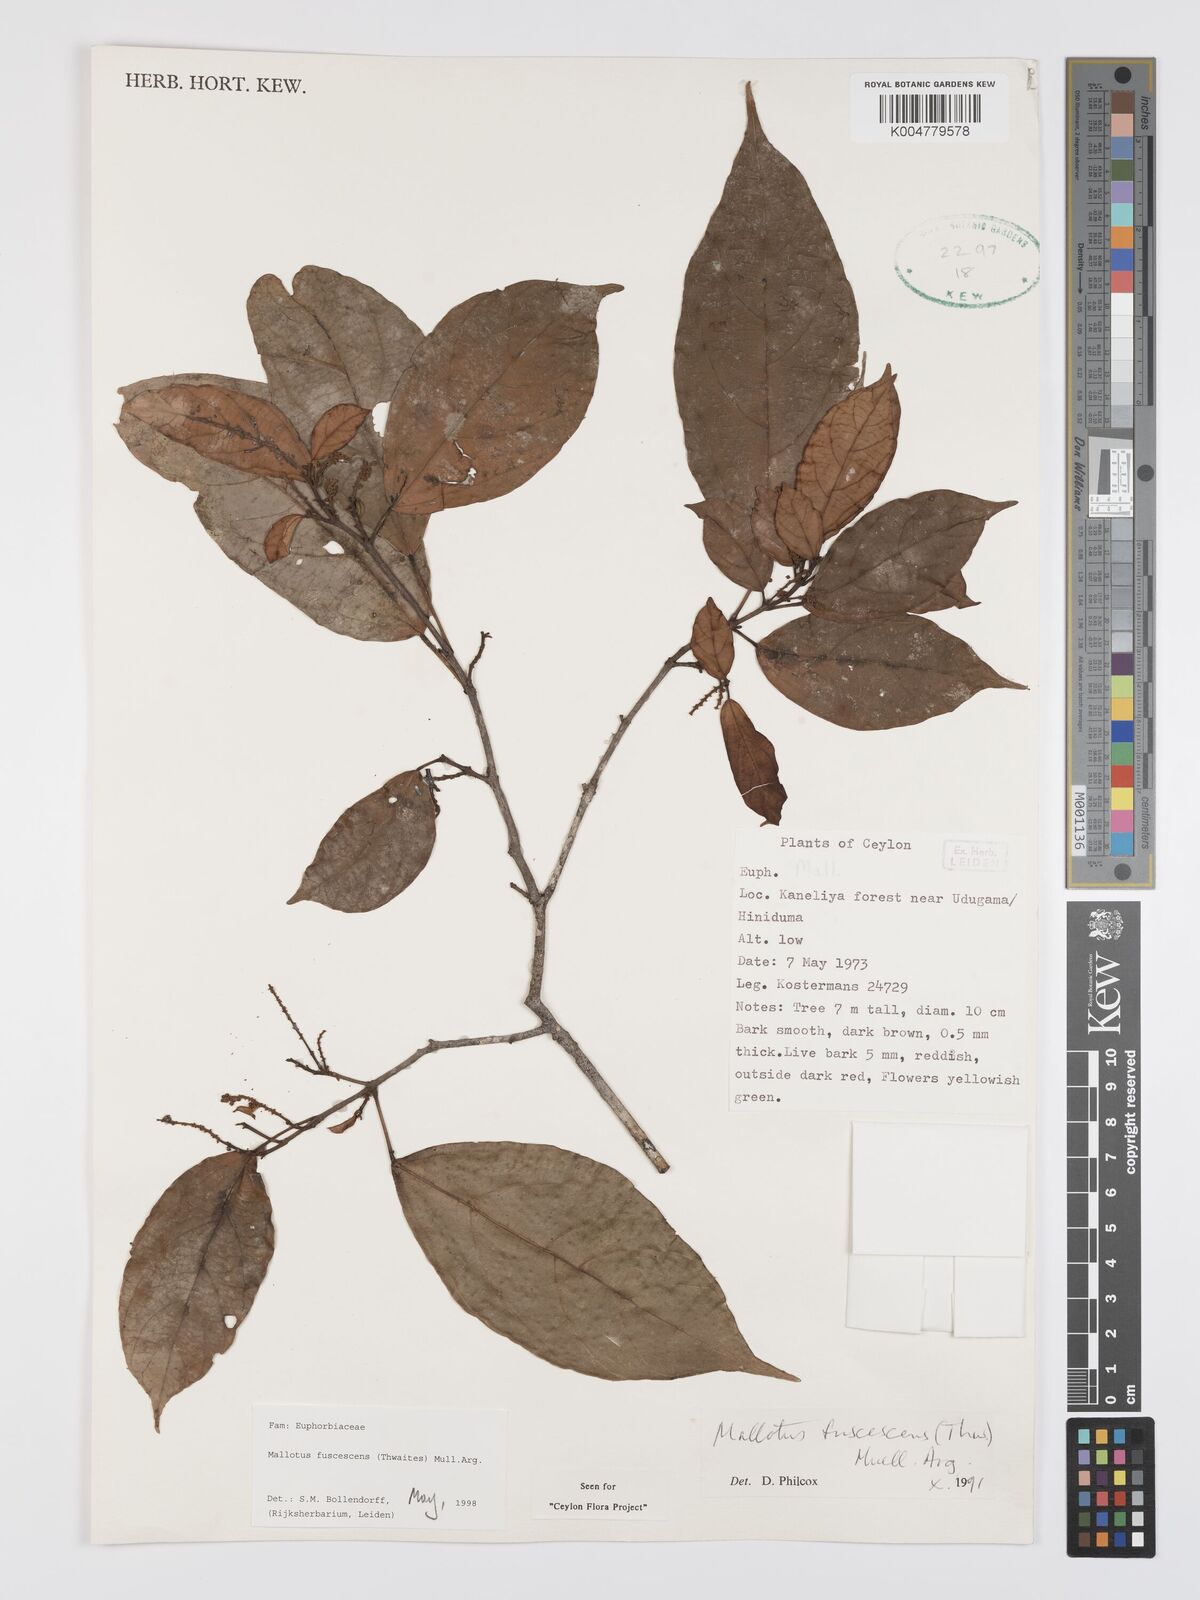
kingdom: Plantae
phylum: Tracheophyta
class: Magnoliopsida
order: Malpighiales
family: Euphorbiaceae
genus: Mallotus
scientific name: Mallotus fuscescens
